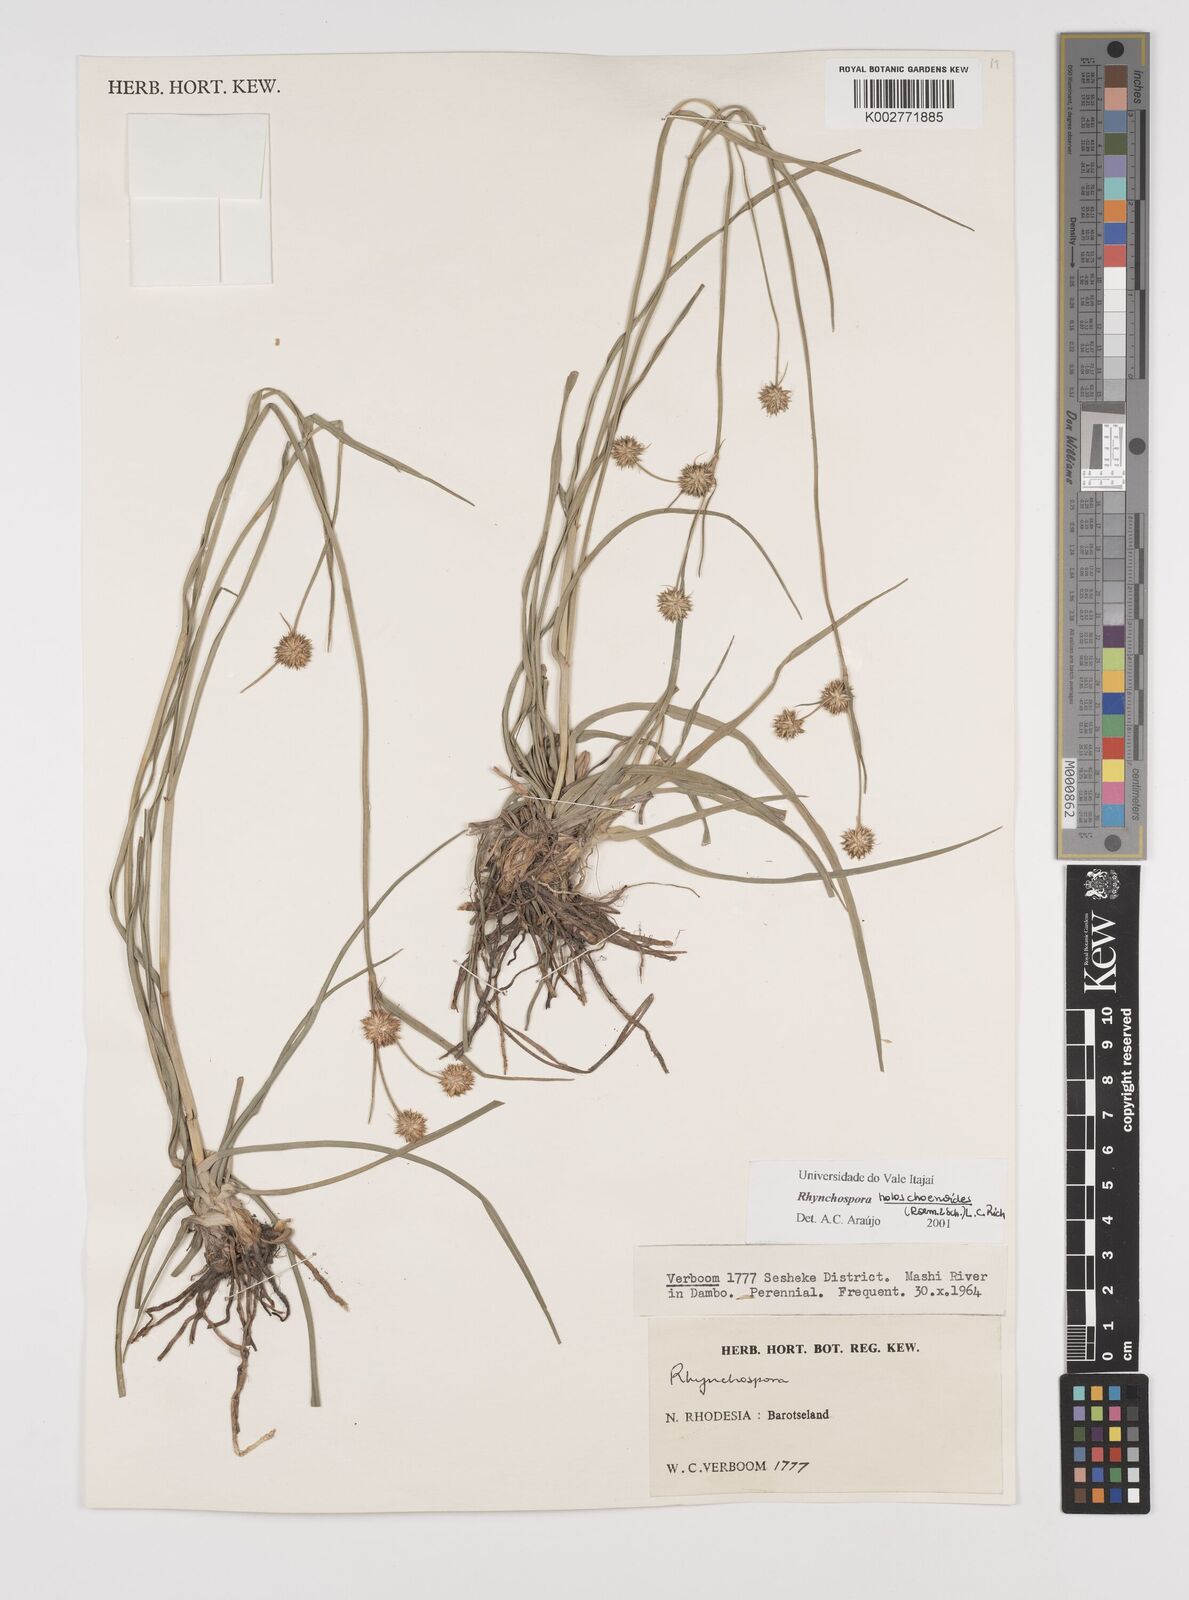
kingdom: Plantae
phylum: Tracheophyta
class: Liliopsida
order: Poales
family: Cyperaceae
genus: Rhynchospora
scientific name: Rhynchospora holoschoenoides
